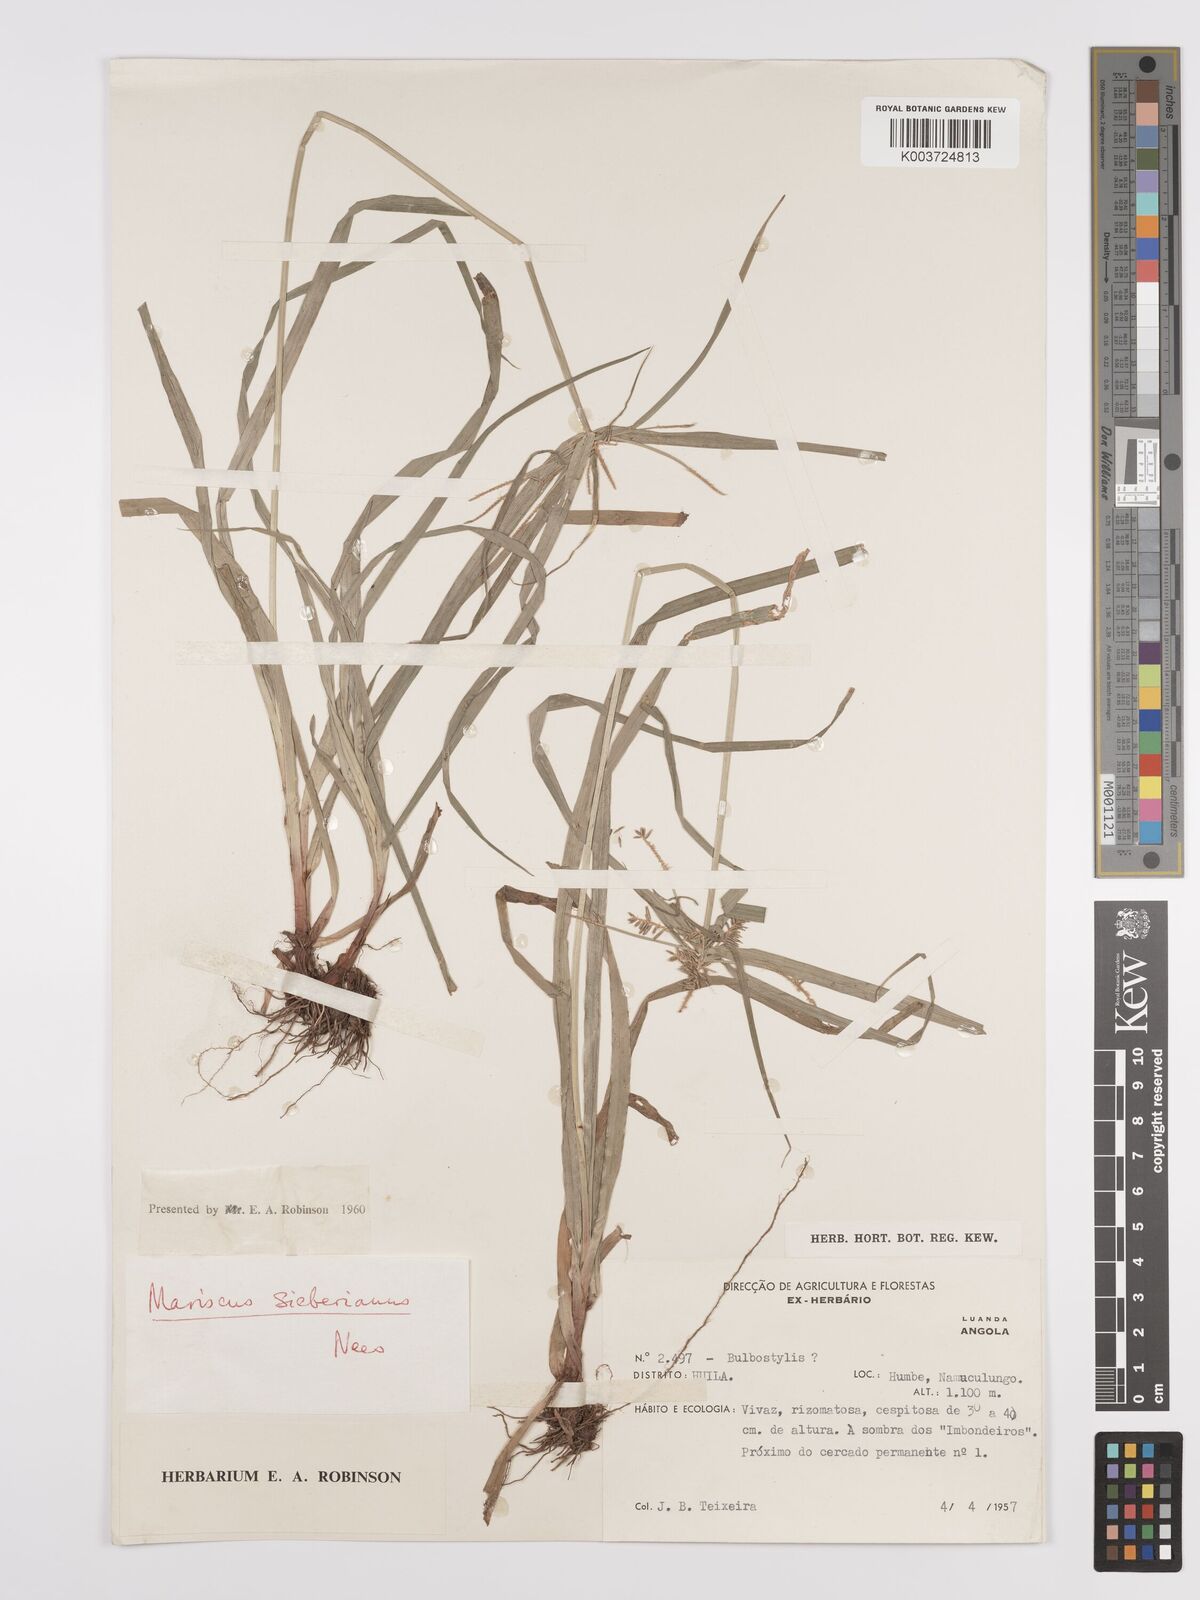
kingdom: Plantae
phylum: Tracheophyta
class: Liliopsida
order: Poales
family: Cyperaceae
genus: Cyperus
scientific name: Cyperus cyperoides
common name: Pacific island flat sedge
